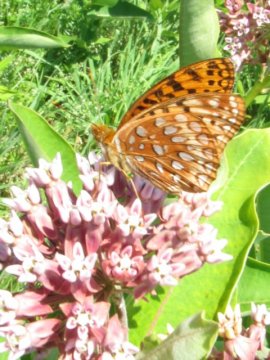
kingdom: Animalia
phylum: Arthropoda
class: Insecta
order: Lepidoptera
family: Nymphalidae
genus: Speyeria
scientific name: Speyeria aphrodite
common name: Aphrodite Fritillary
